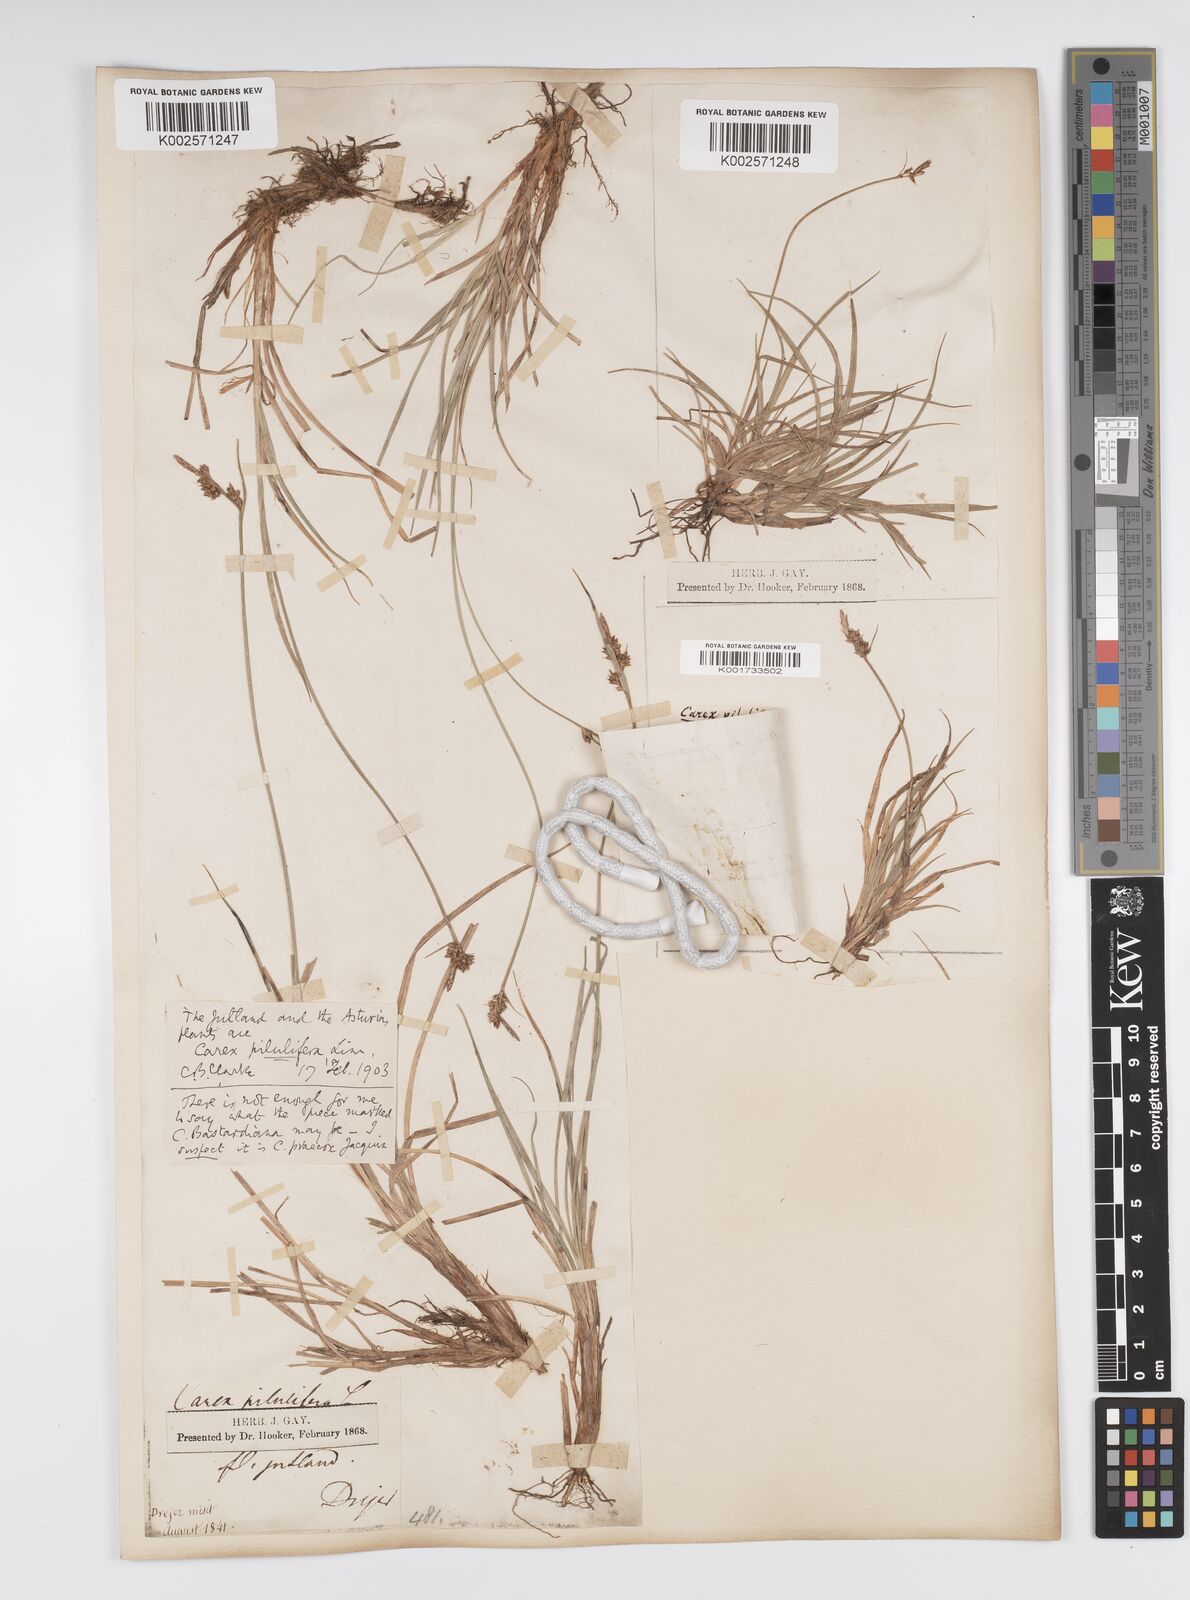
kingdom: Plantae
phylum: Tracheophyta
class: Liliopsida
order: Poales
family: Cyperaceae
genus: Carex
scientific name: Carex pilulifera
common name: Pill sedge
